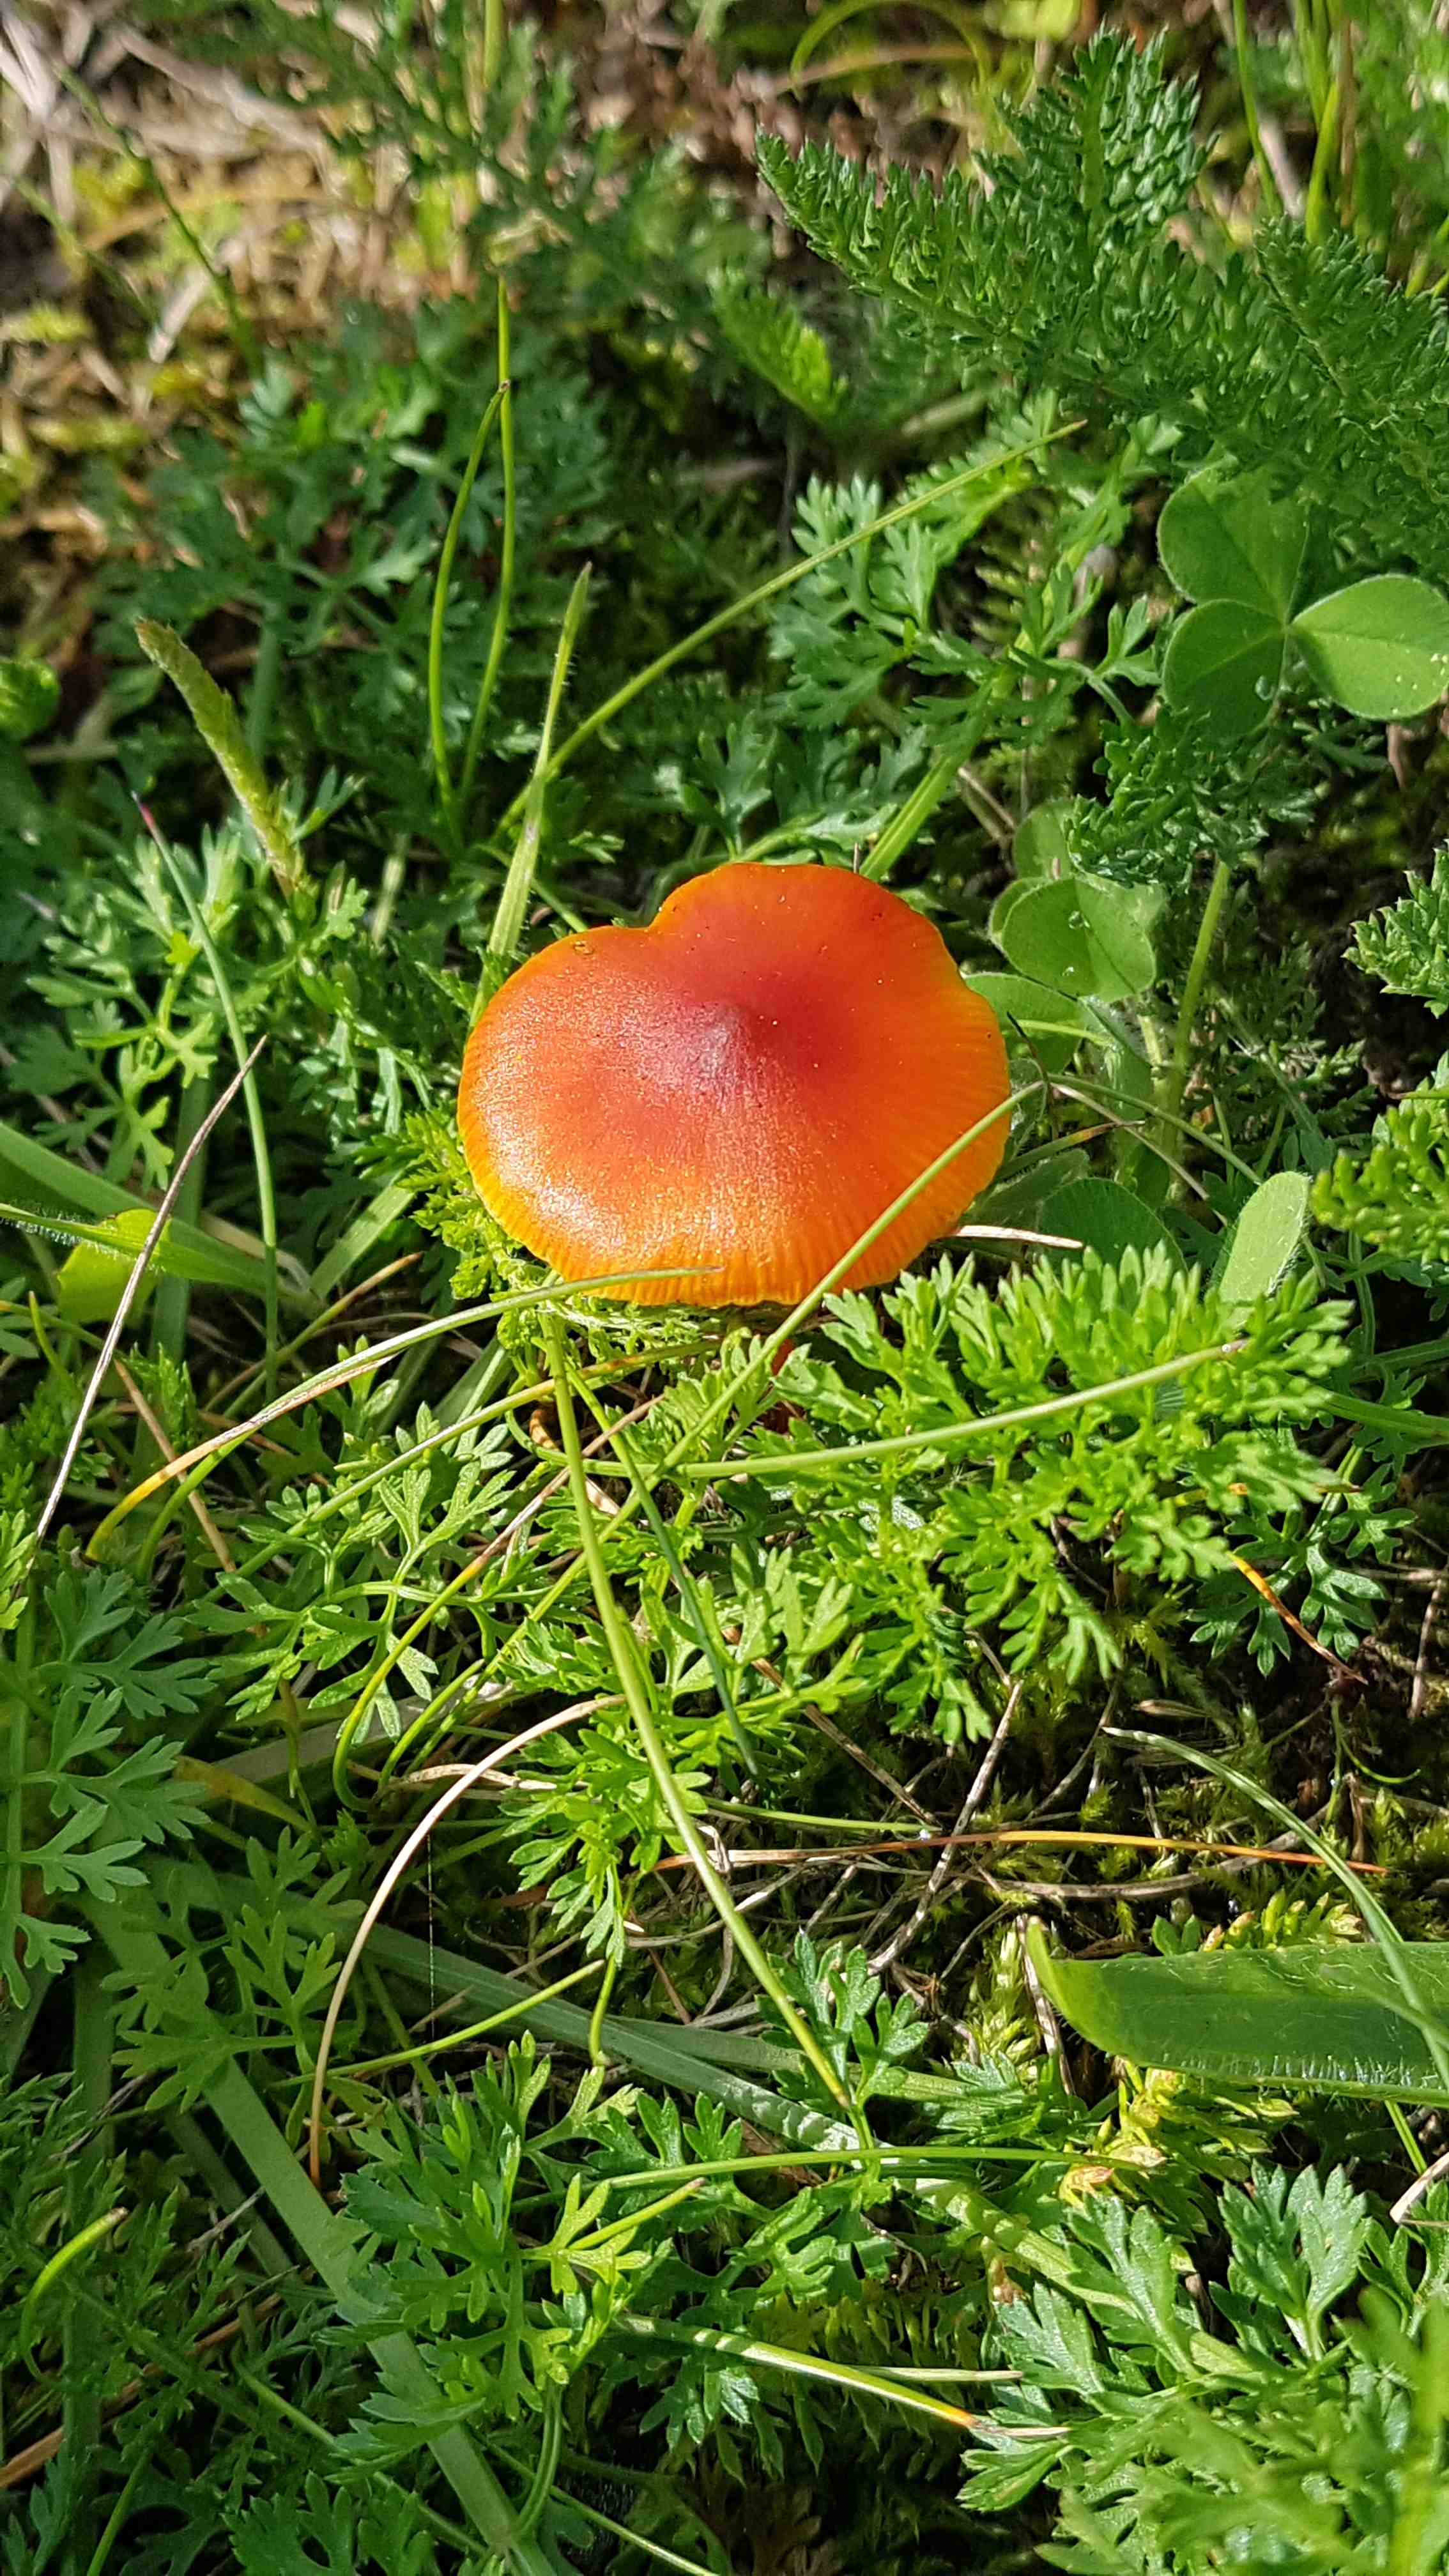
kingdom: Fungi
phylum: Basidiomycota
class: Agaricomycetes
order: Agaricales
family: Hygrophoraceae
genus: Hygrocybe
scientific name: Hygrocybe
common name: vokshat
